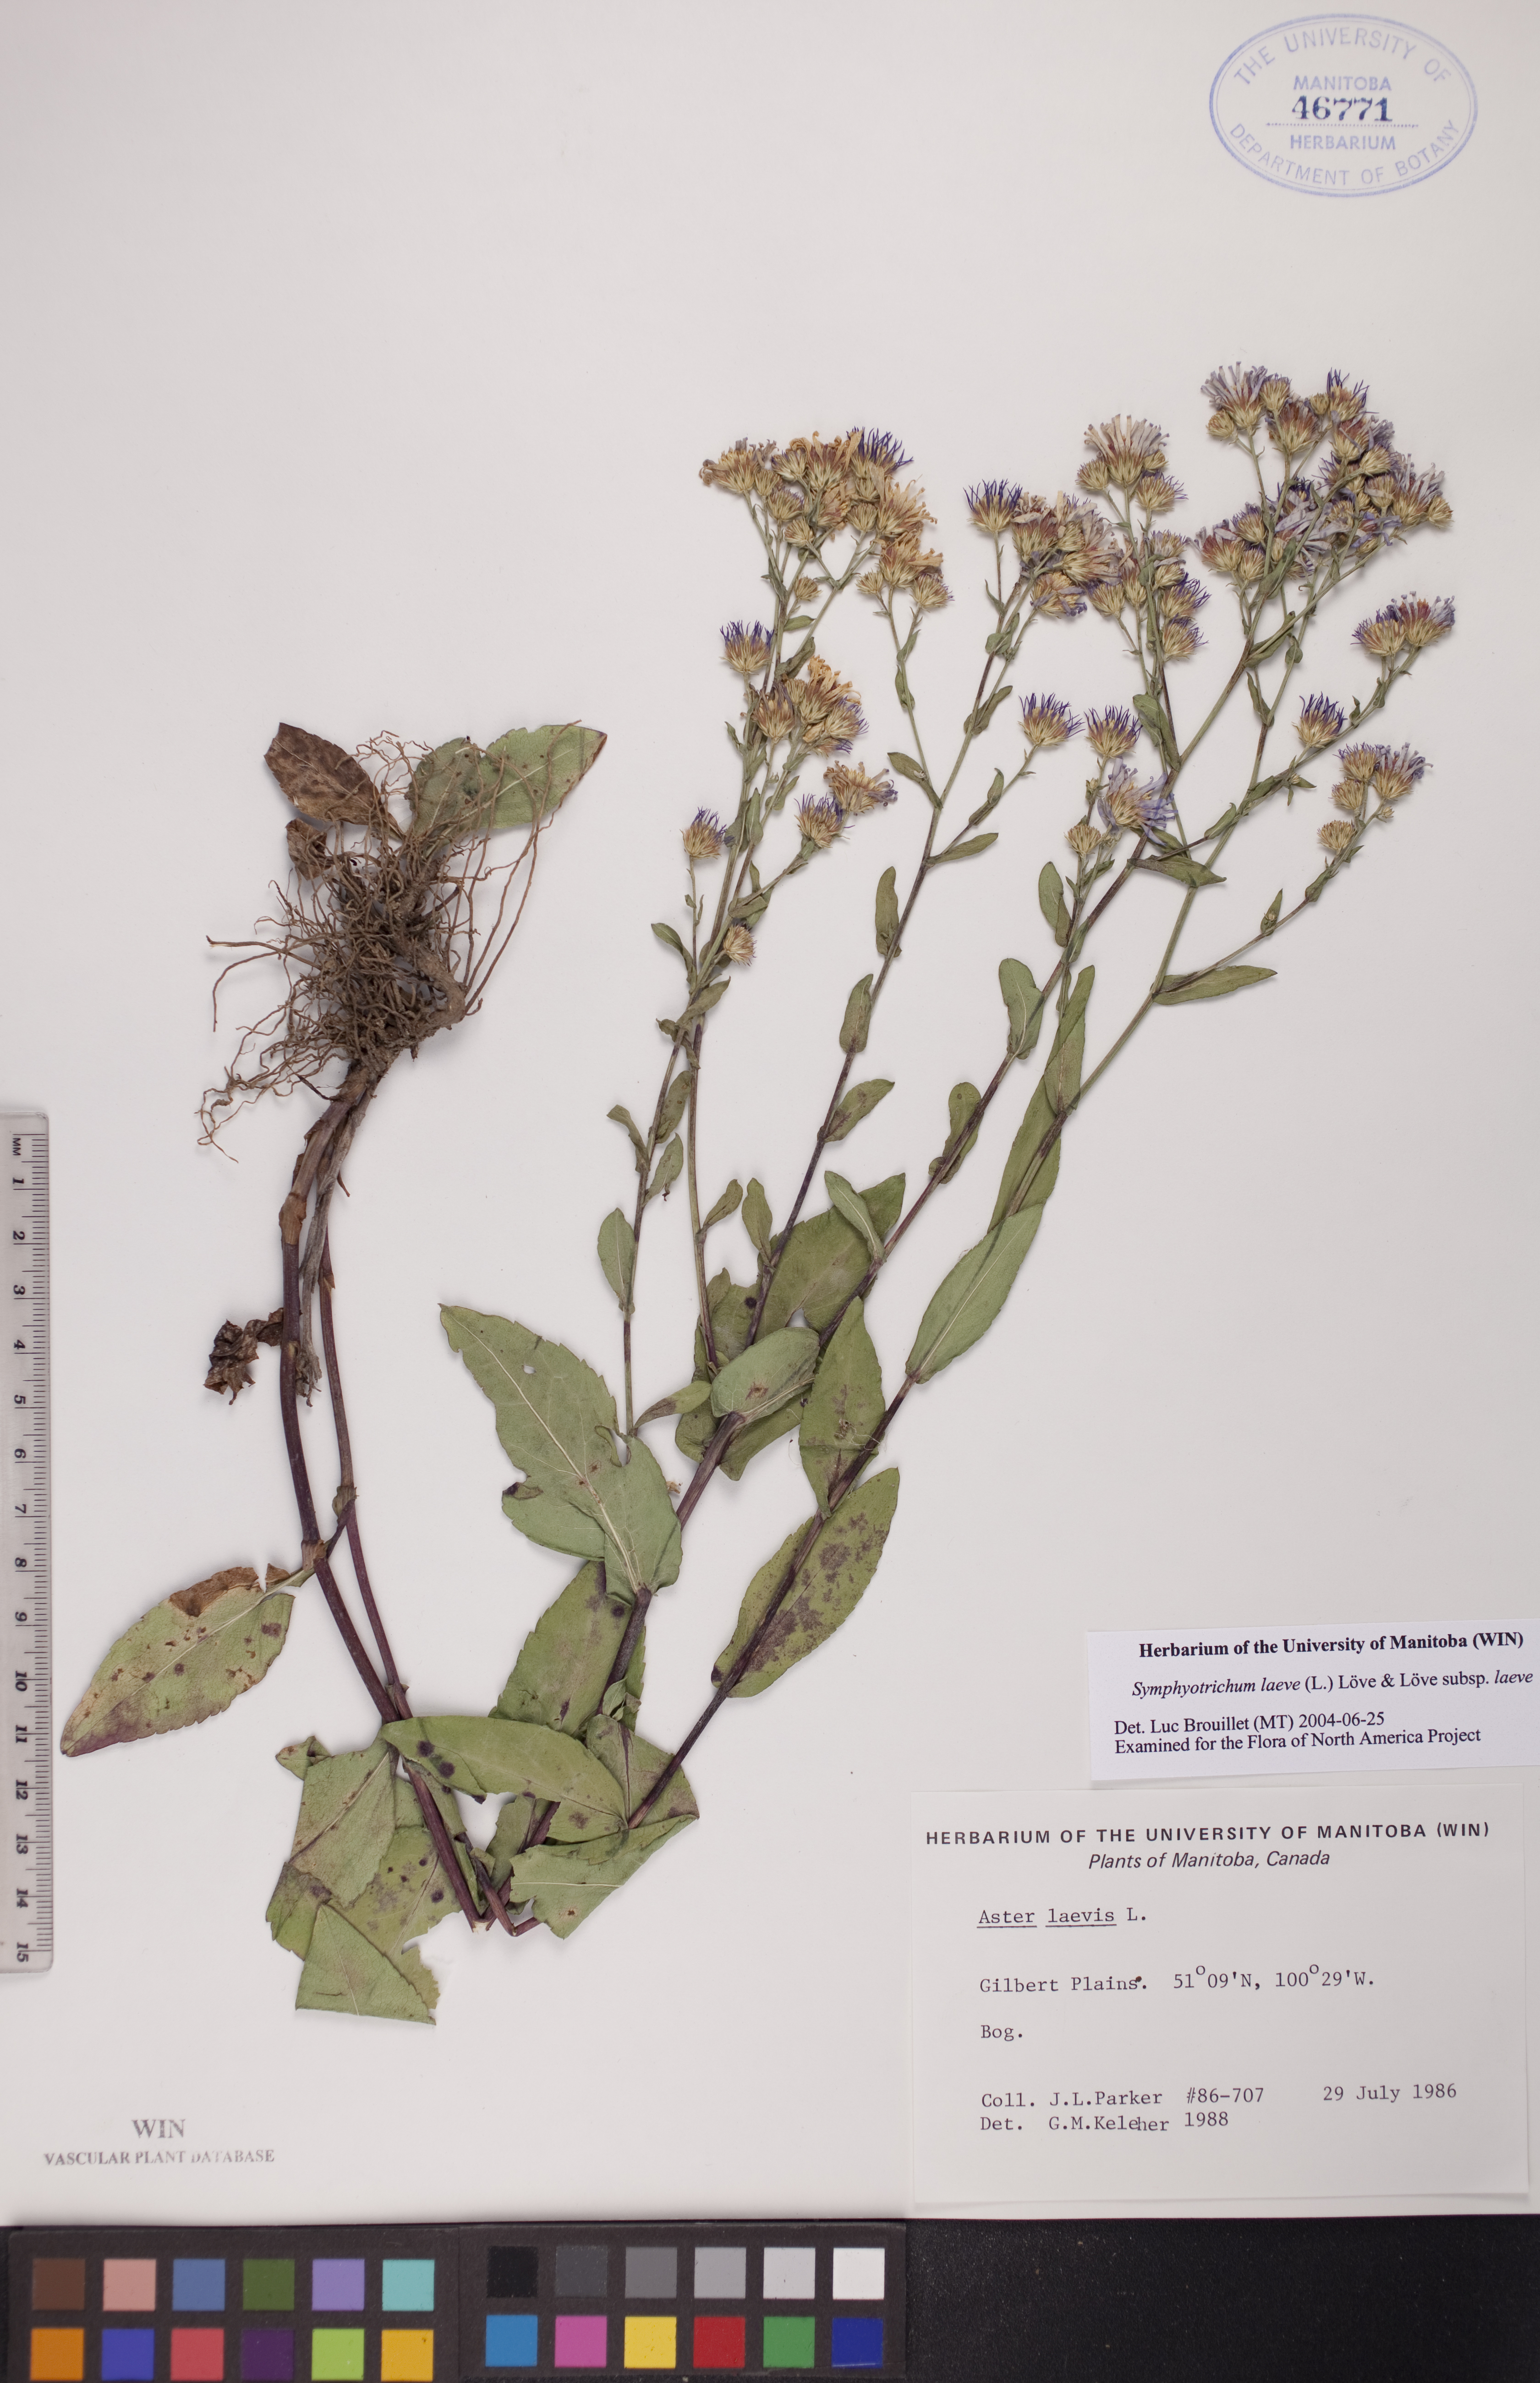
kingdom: Plantae
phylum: Tracheophyta
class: Magnoliopsida
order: Asterales
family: Asteraceae
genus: Symphyotrichum
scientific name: Symphyotrichum laeve
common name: Glaucous aster
